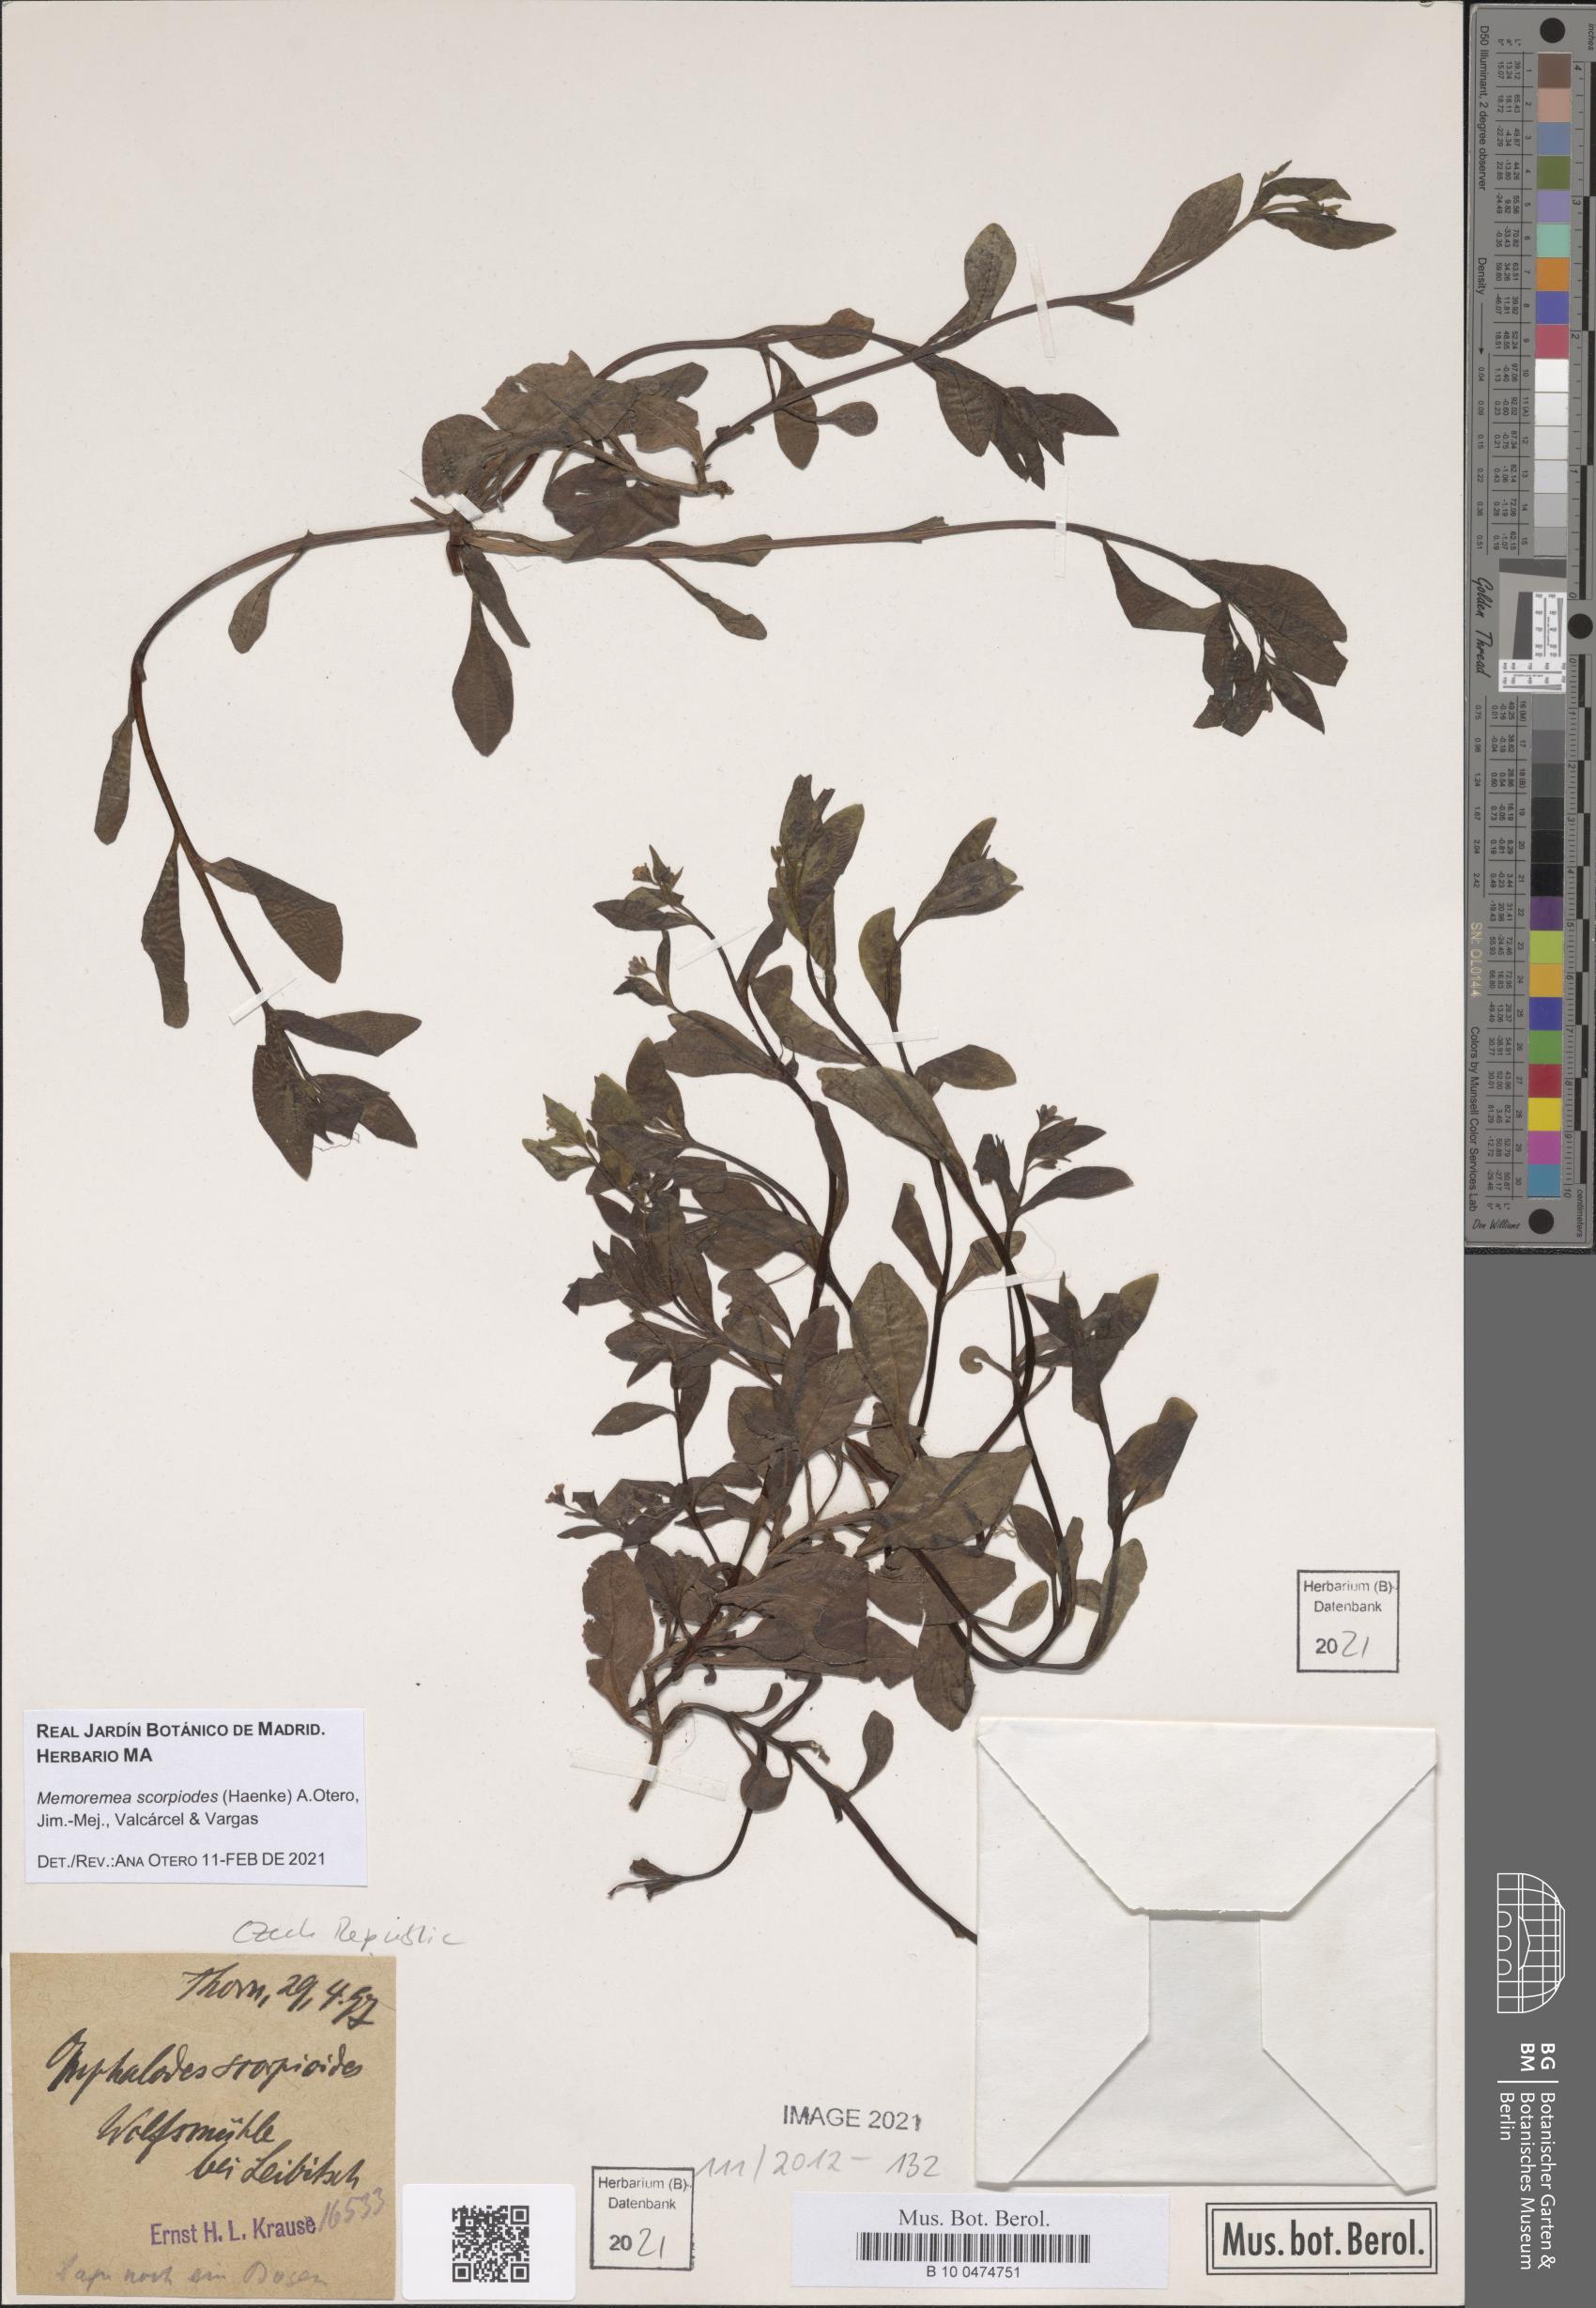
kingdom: Plantae
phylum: Tracheophyta
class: Magnoliopsida
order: Boraginales
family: Boraginaceae
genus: Memoremea
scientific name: Memoremea scorpioides
